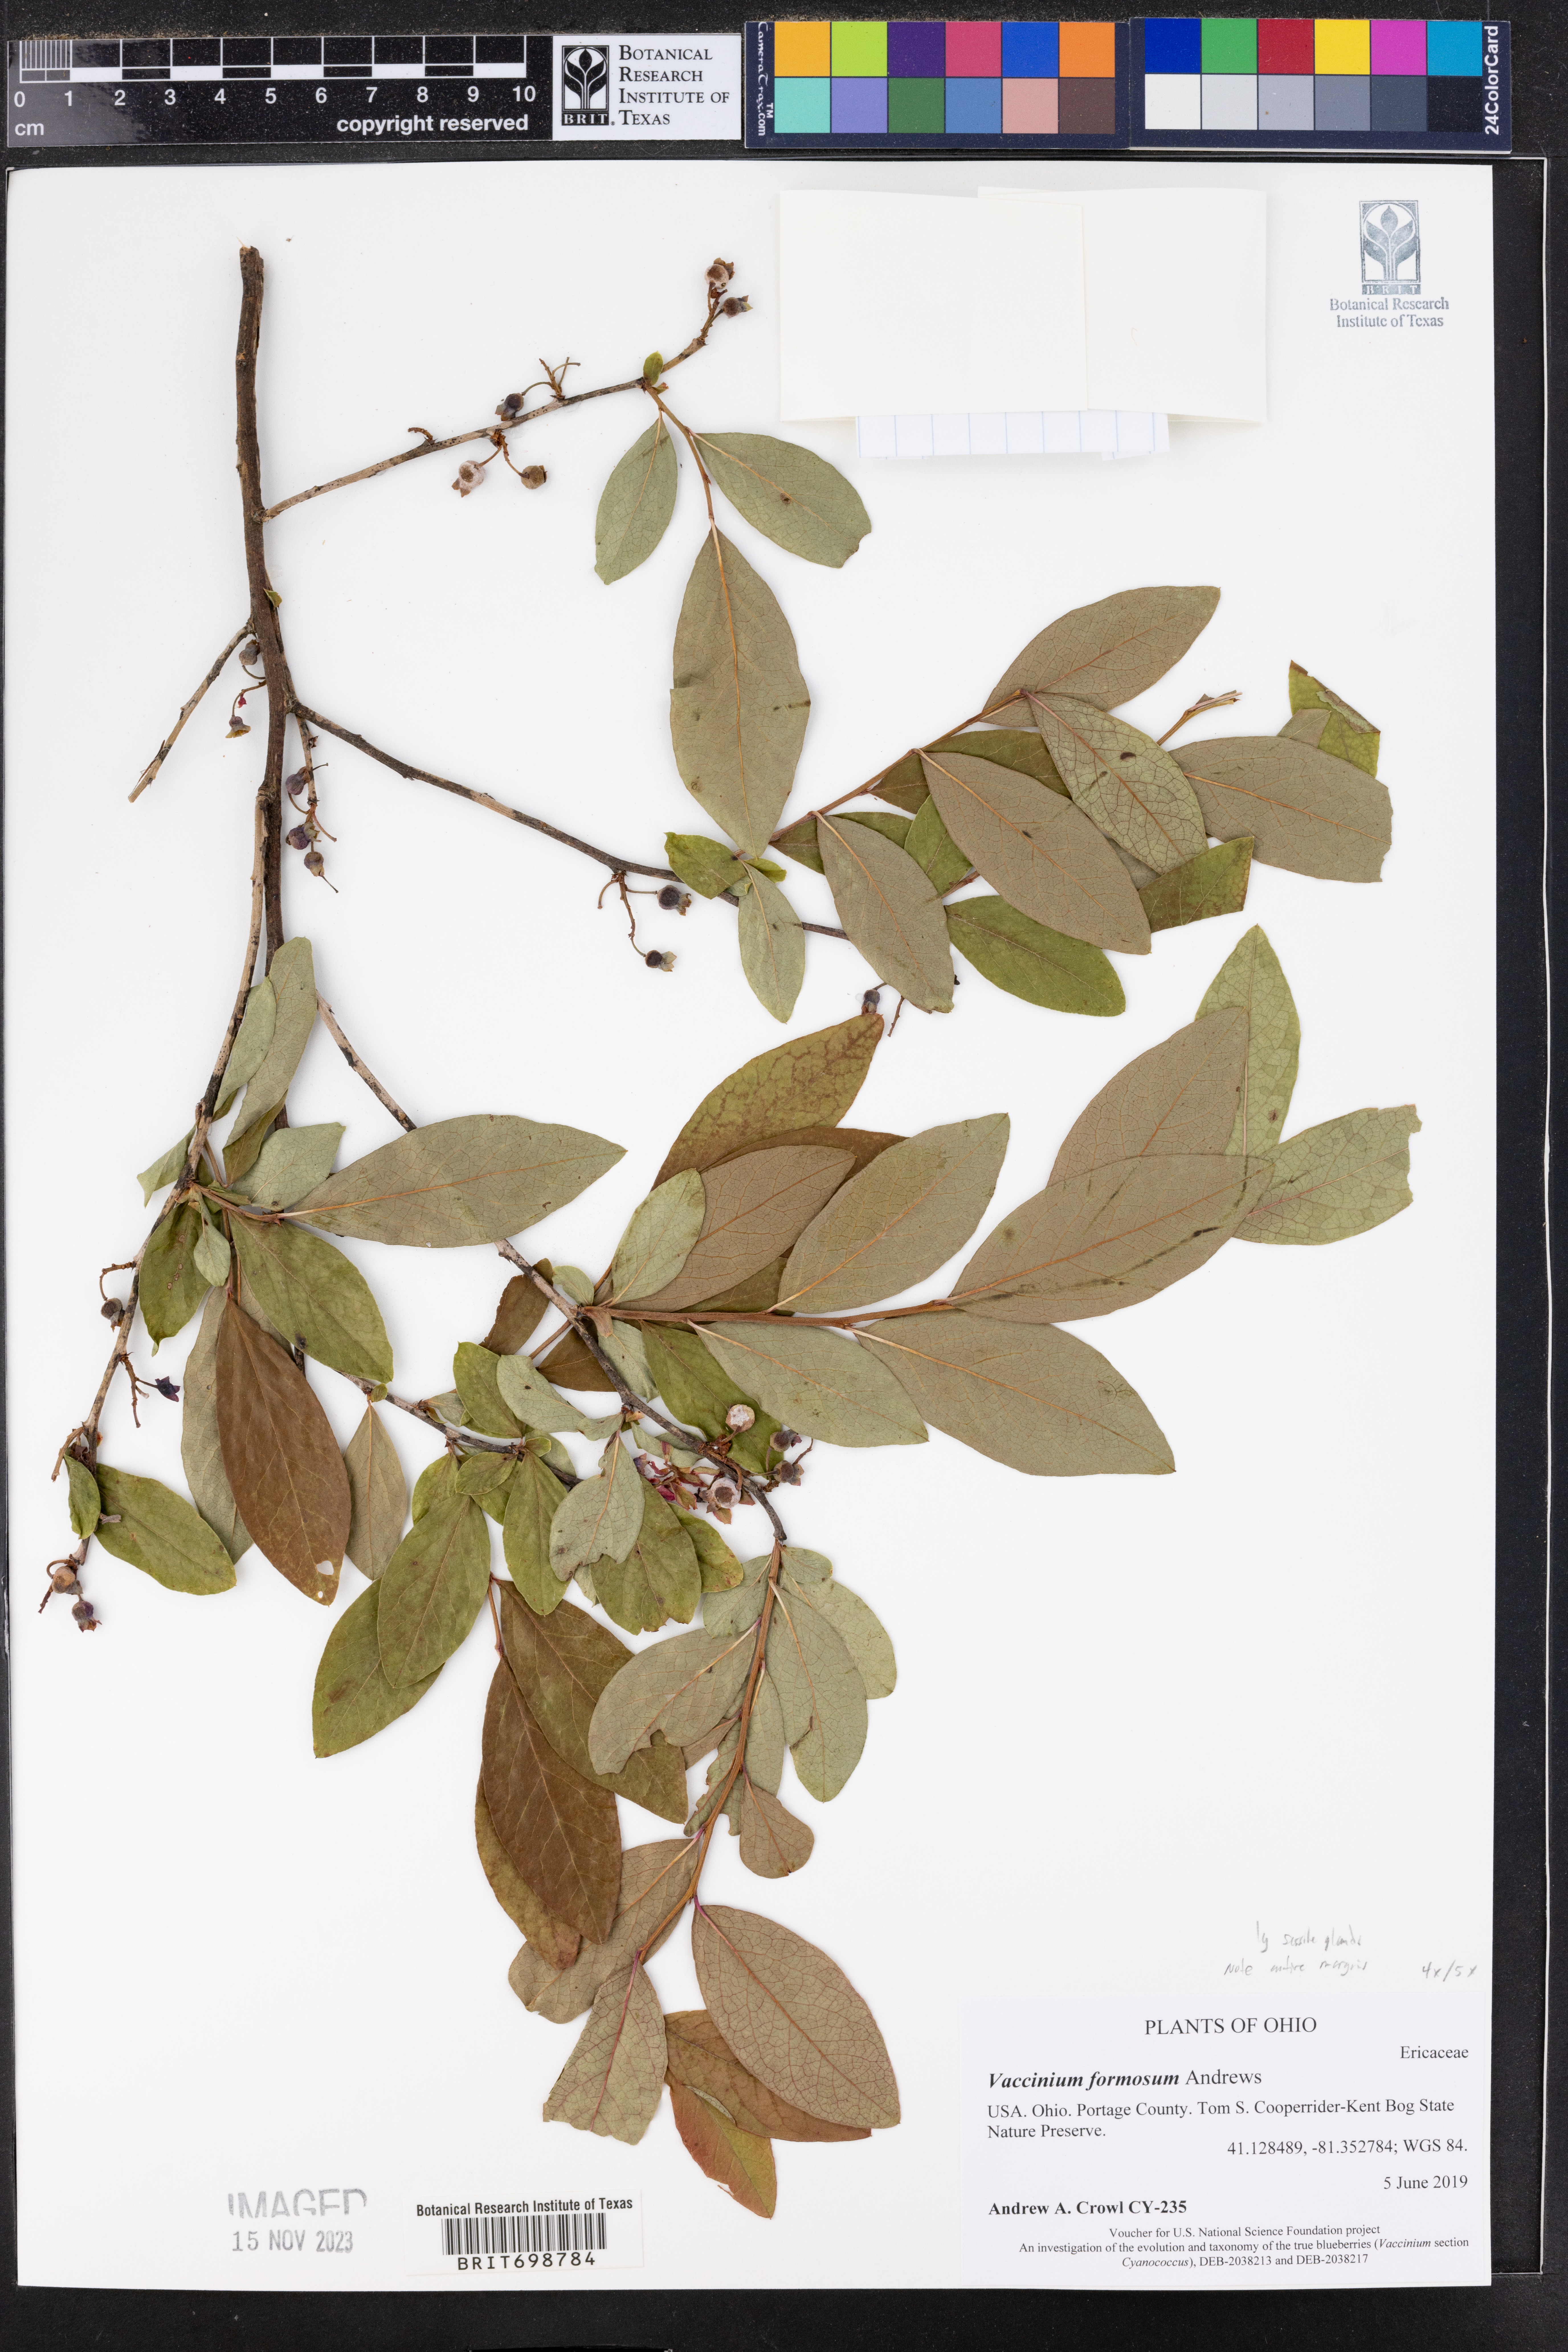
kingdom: Plantae
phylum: Tracheophyta
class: Magnoliopsida
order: Ericales
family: Ericaceae
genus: Vaccinium
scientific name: Vaccinium corymbosum
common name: Blueberry
